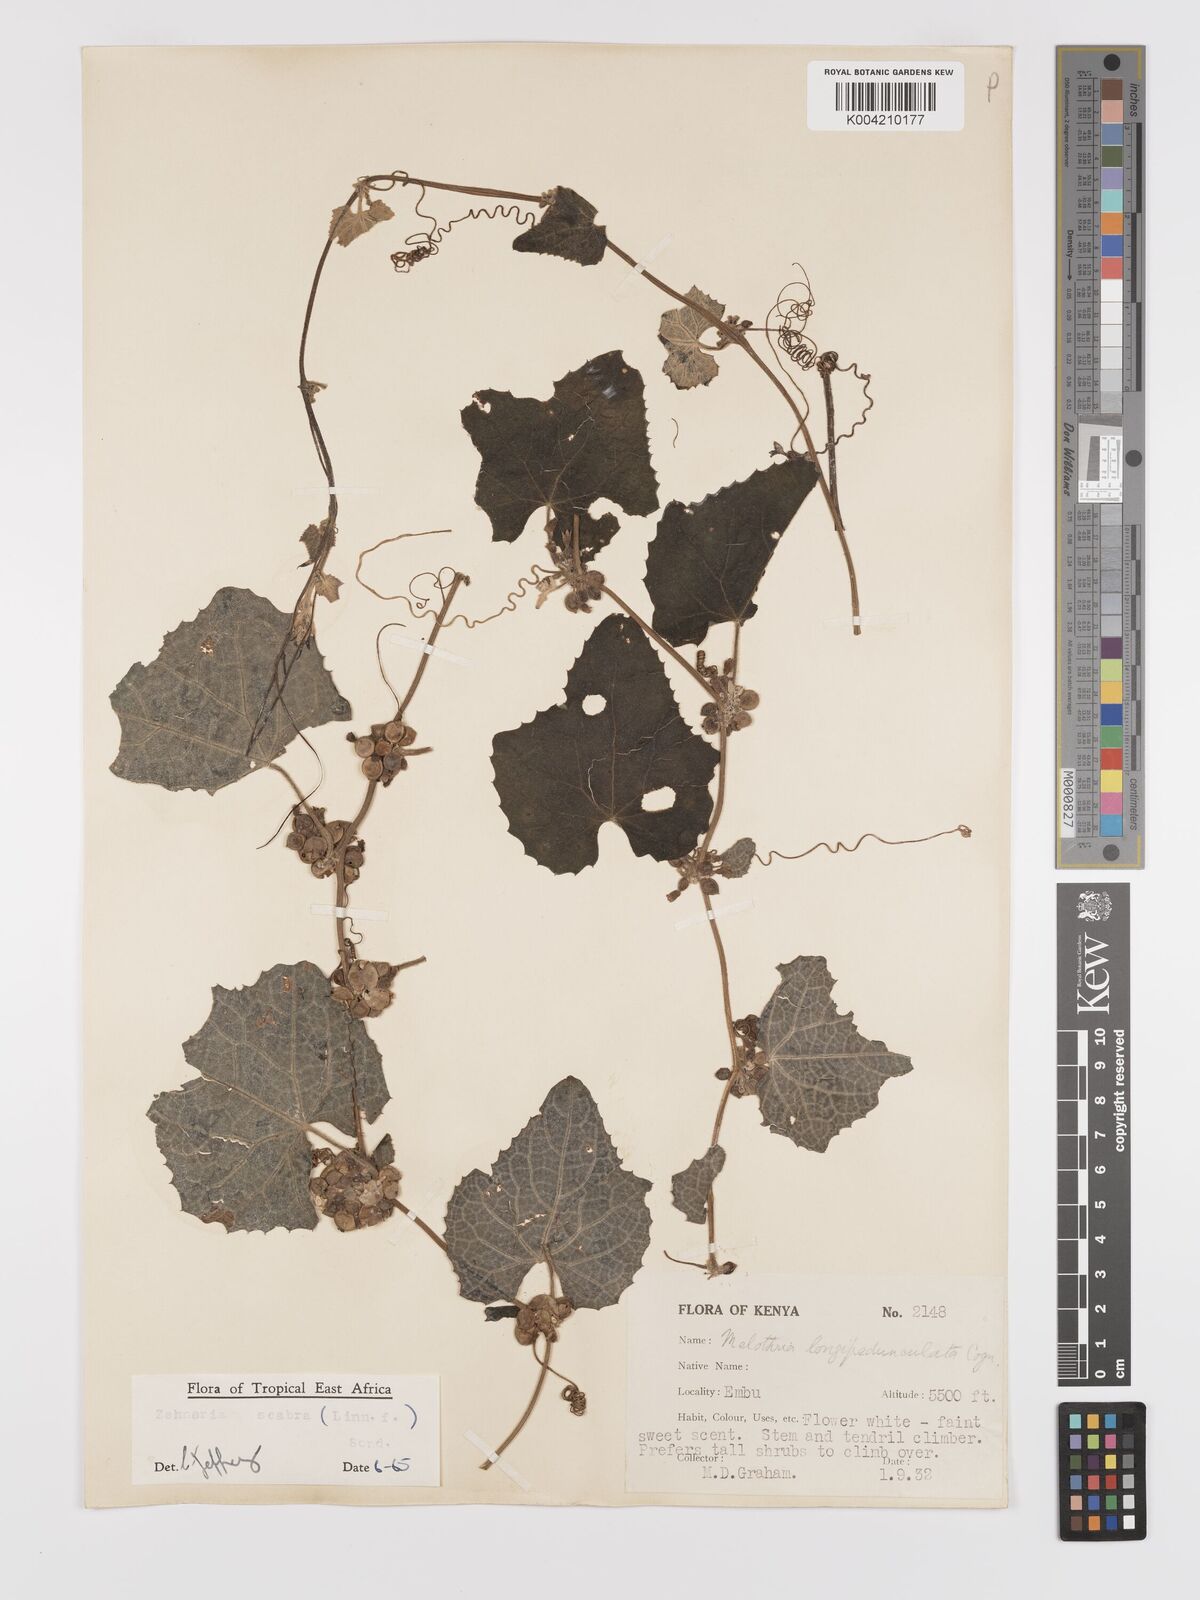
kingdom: Plantae
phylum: Tracheophyta
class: Magnoliopsida
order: Cucurbitales
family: Cucurbitaceae
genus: Zehneria
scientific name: Zehneria scabra
